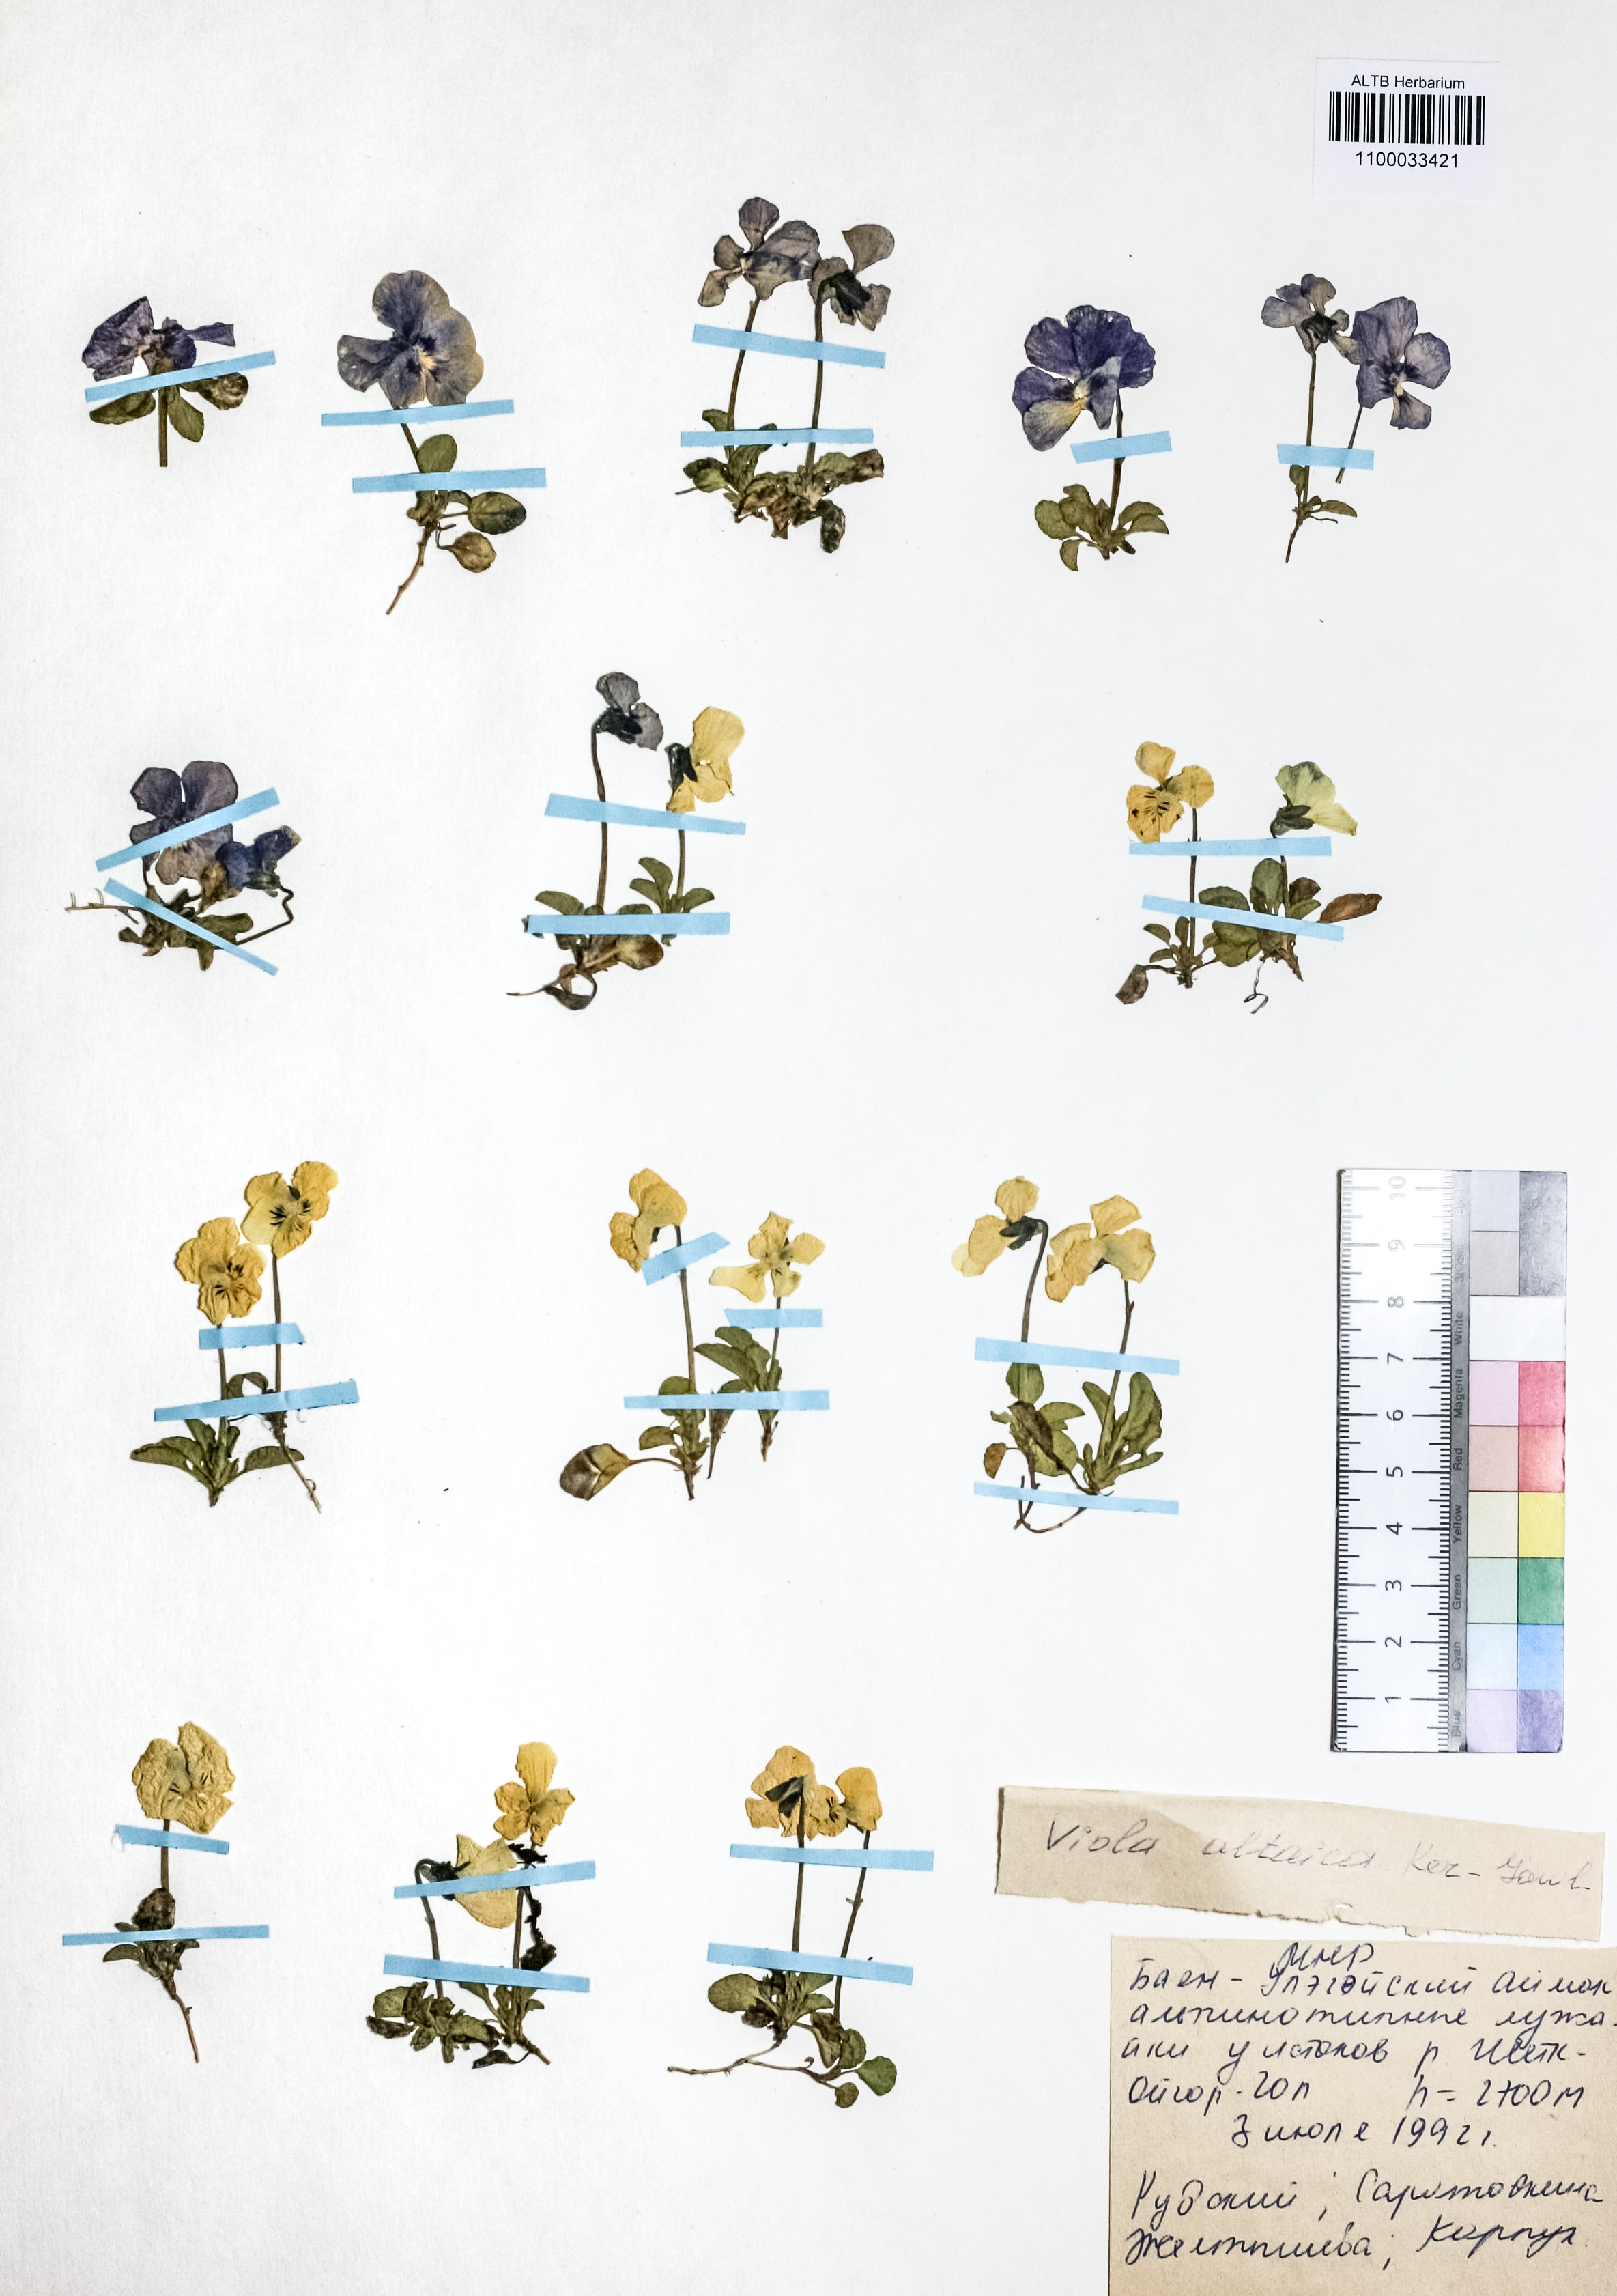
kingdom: Plantae
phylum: Tracheophyta
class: Magnoliopsida
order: Malpighiales
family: Violaceae
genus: Viola
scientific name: Viola altaica
